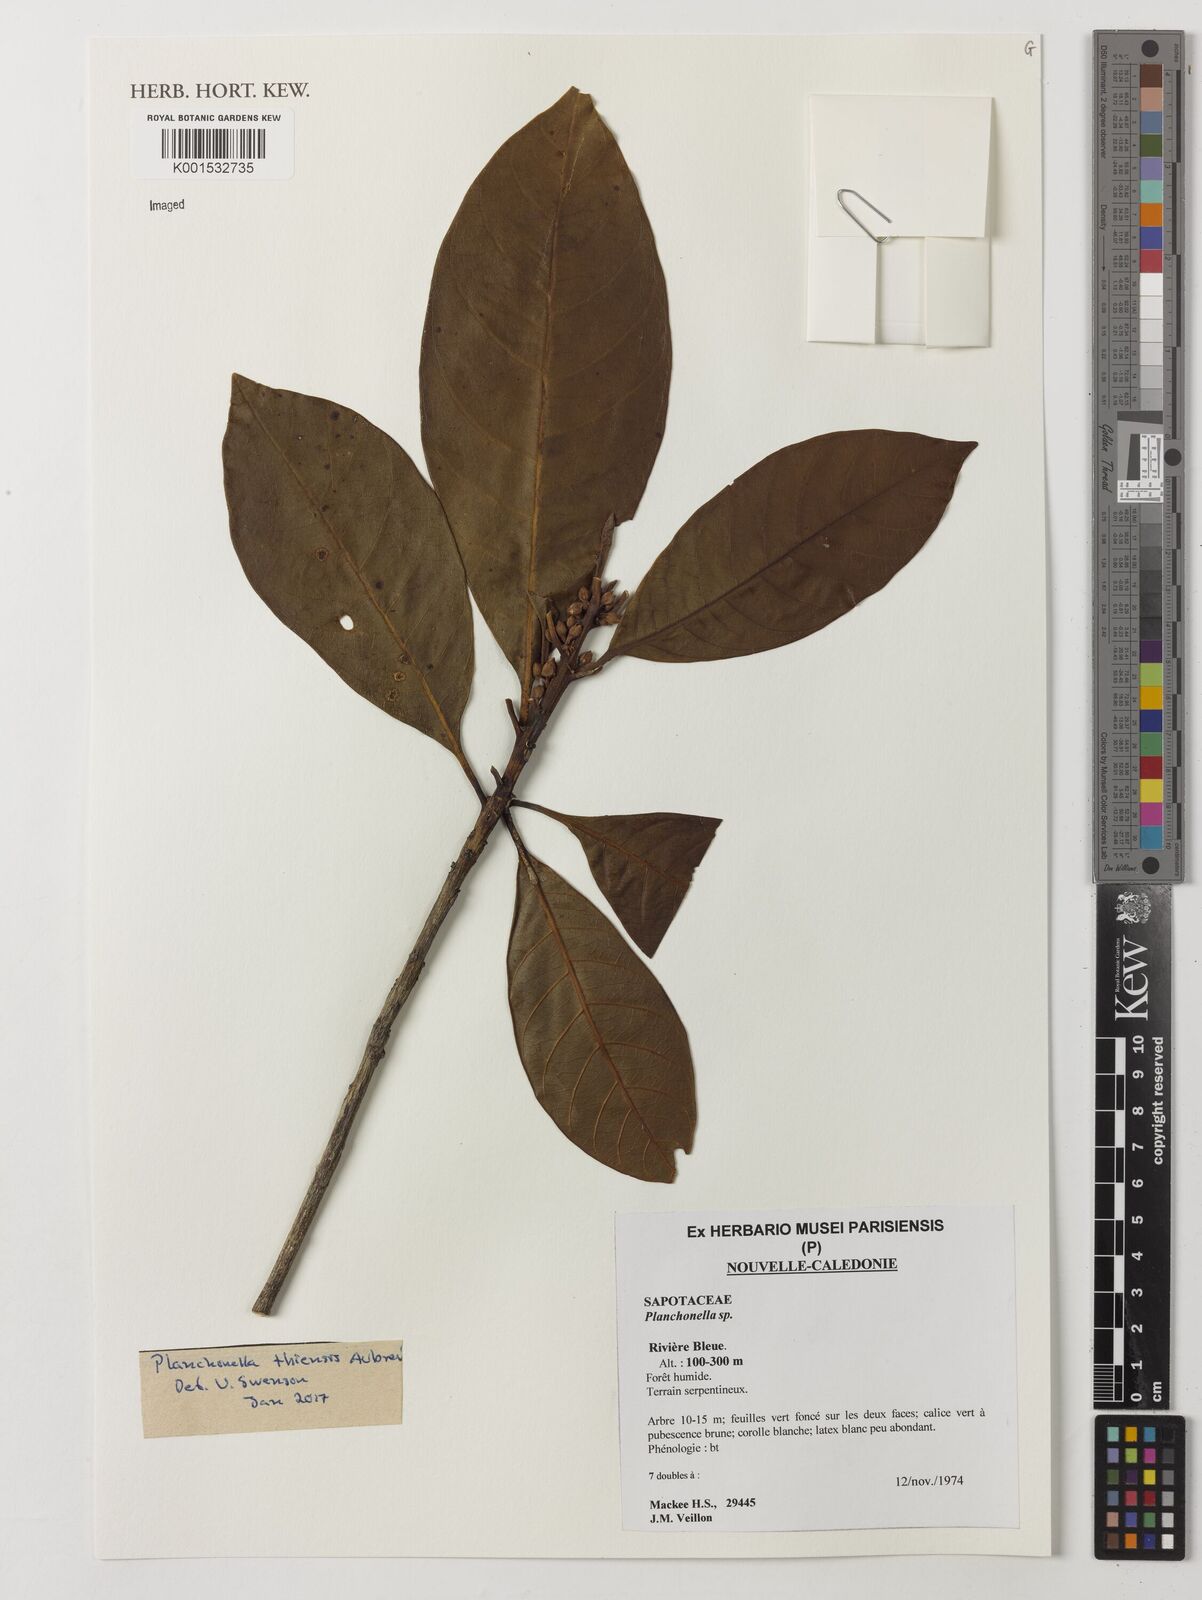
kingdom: Plantae
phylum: Tracheophyta
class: Magnoliopsida
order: Ericales
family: Sapotaceae
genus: Planchonella
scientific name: Planchonella
